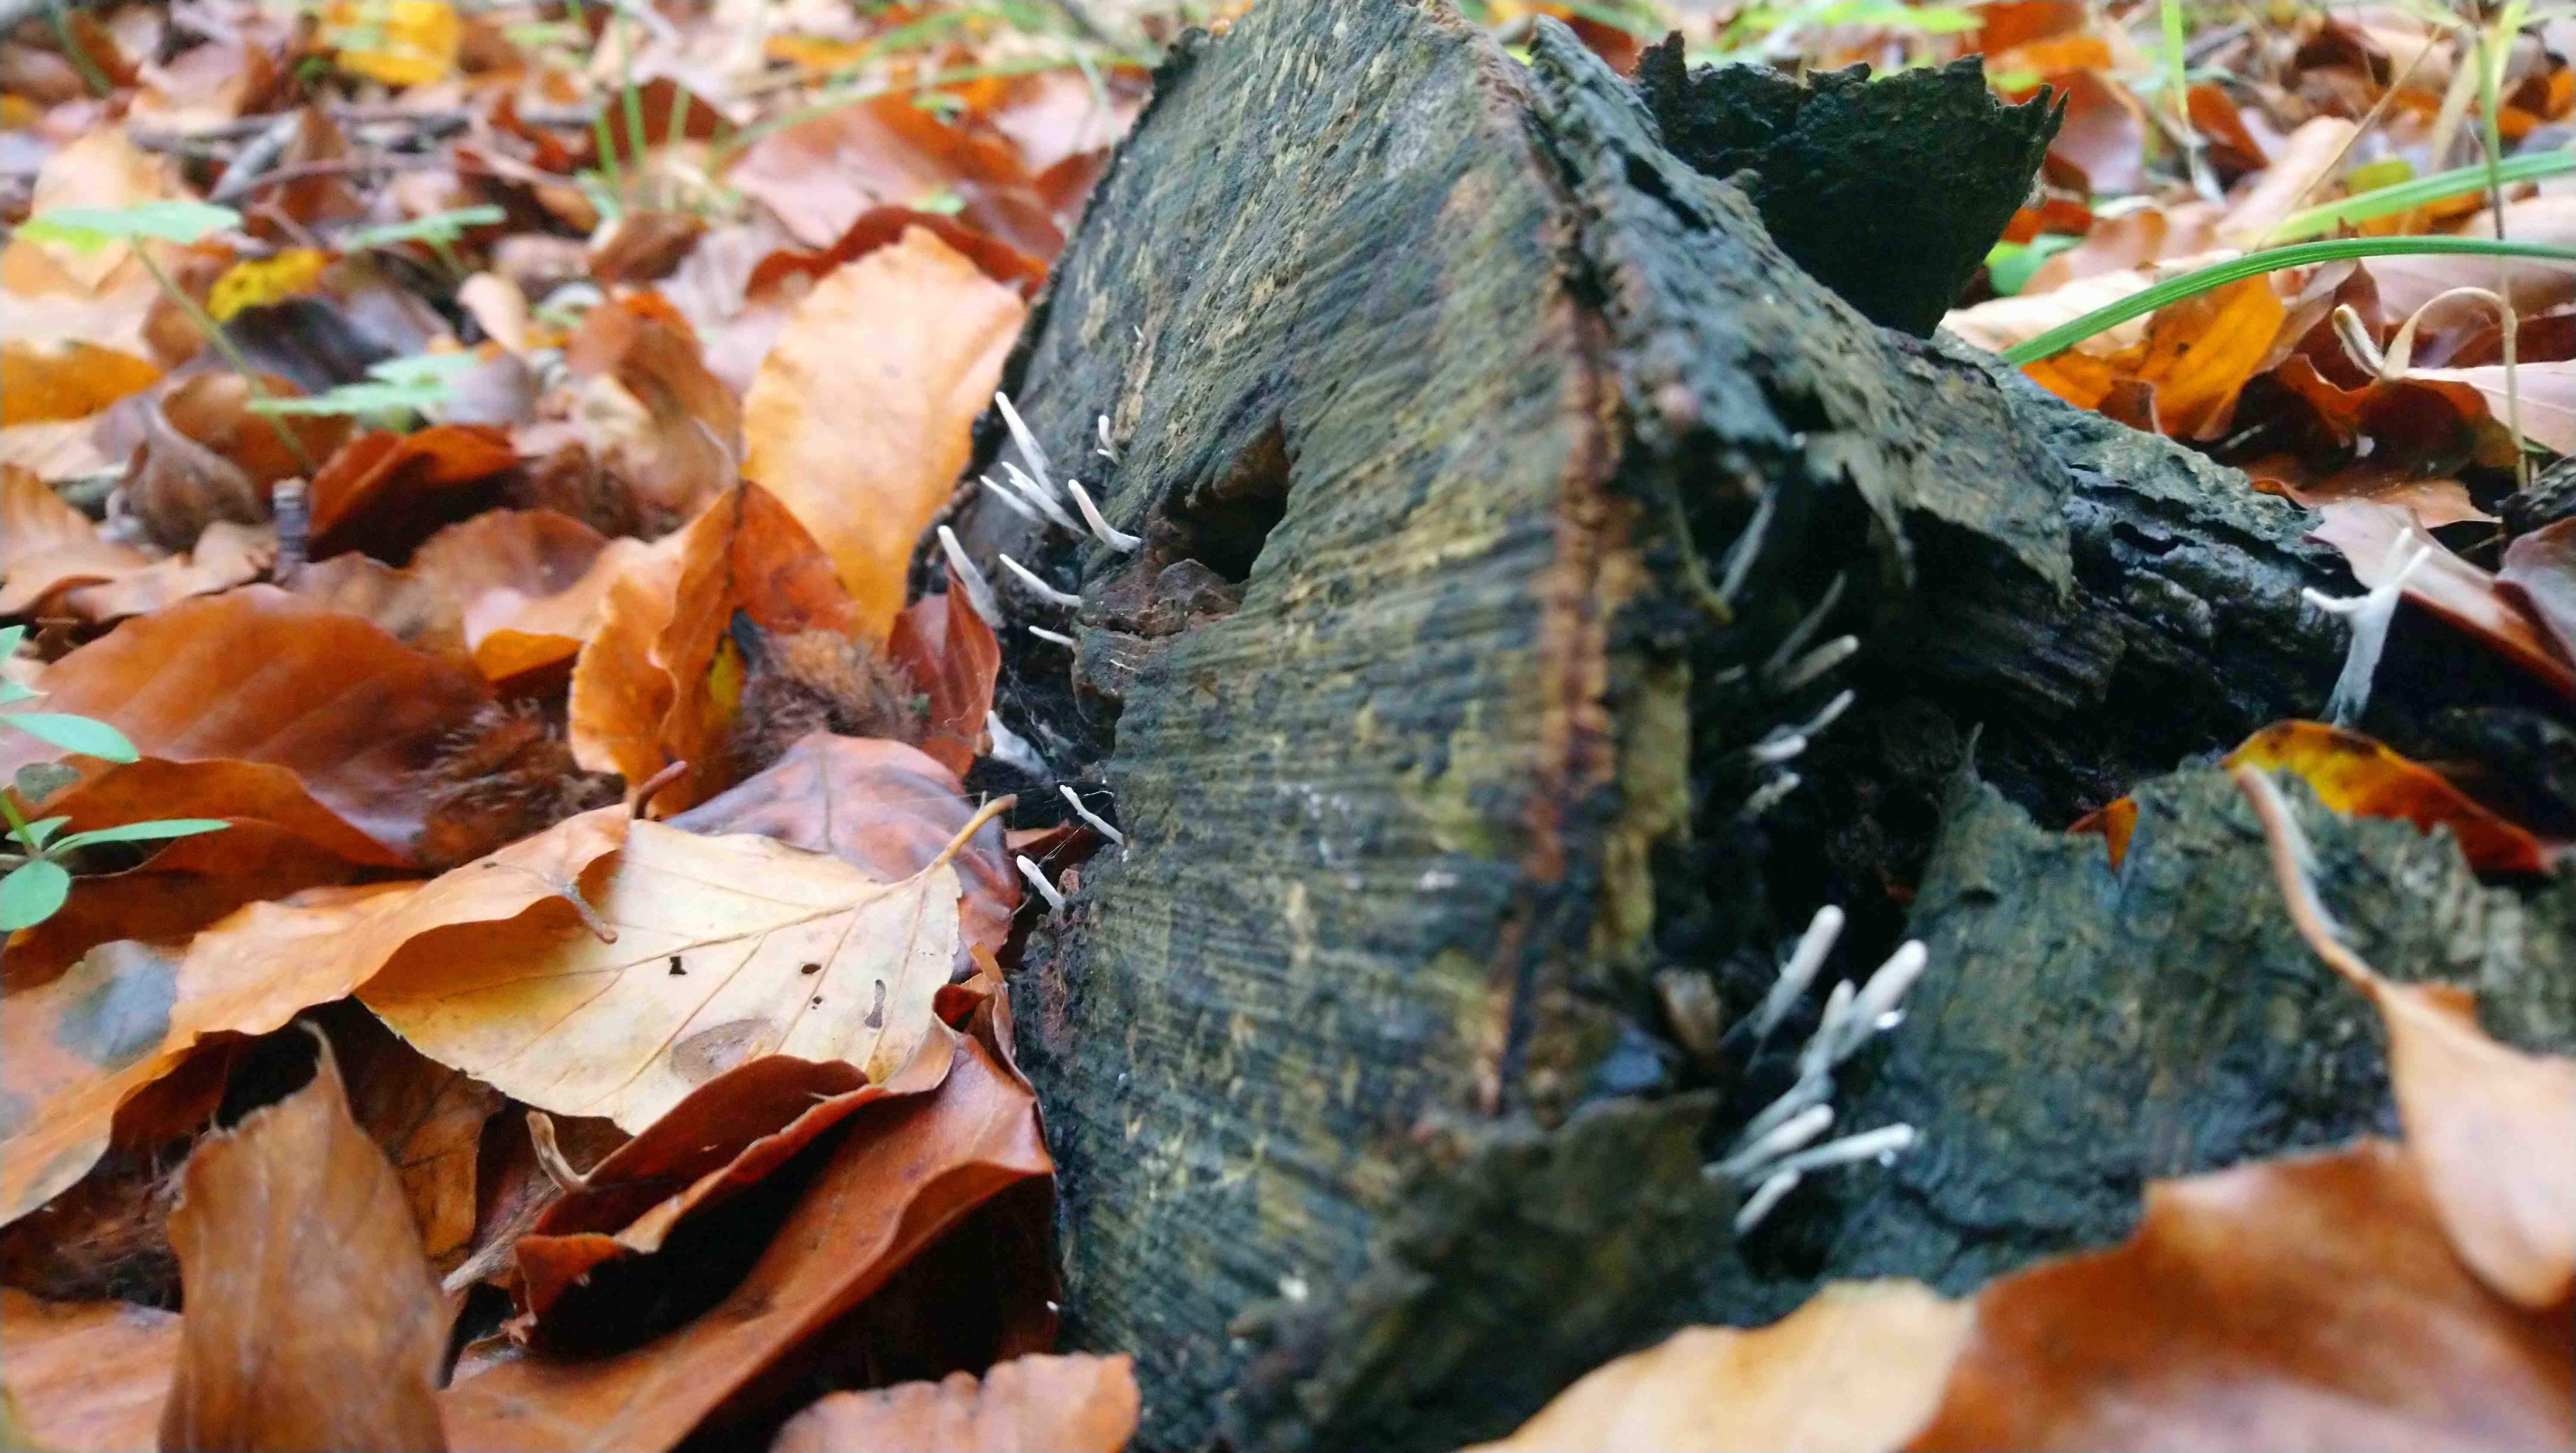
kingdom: Fungi
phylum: Ascomycota
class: Sordariomycetes
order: Xylariales
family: Xylariaceae
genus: Xylaria
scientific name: Xylaria hypoxylon
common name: grenet stødsvamp
